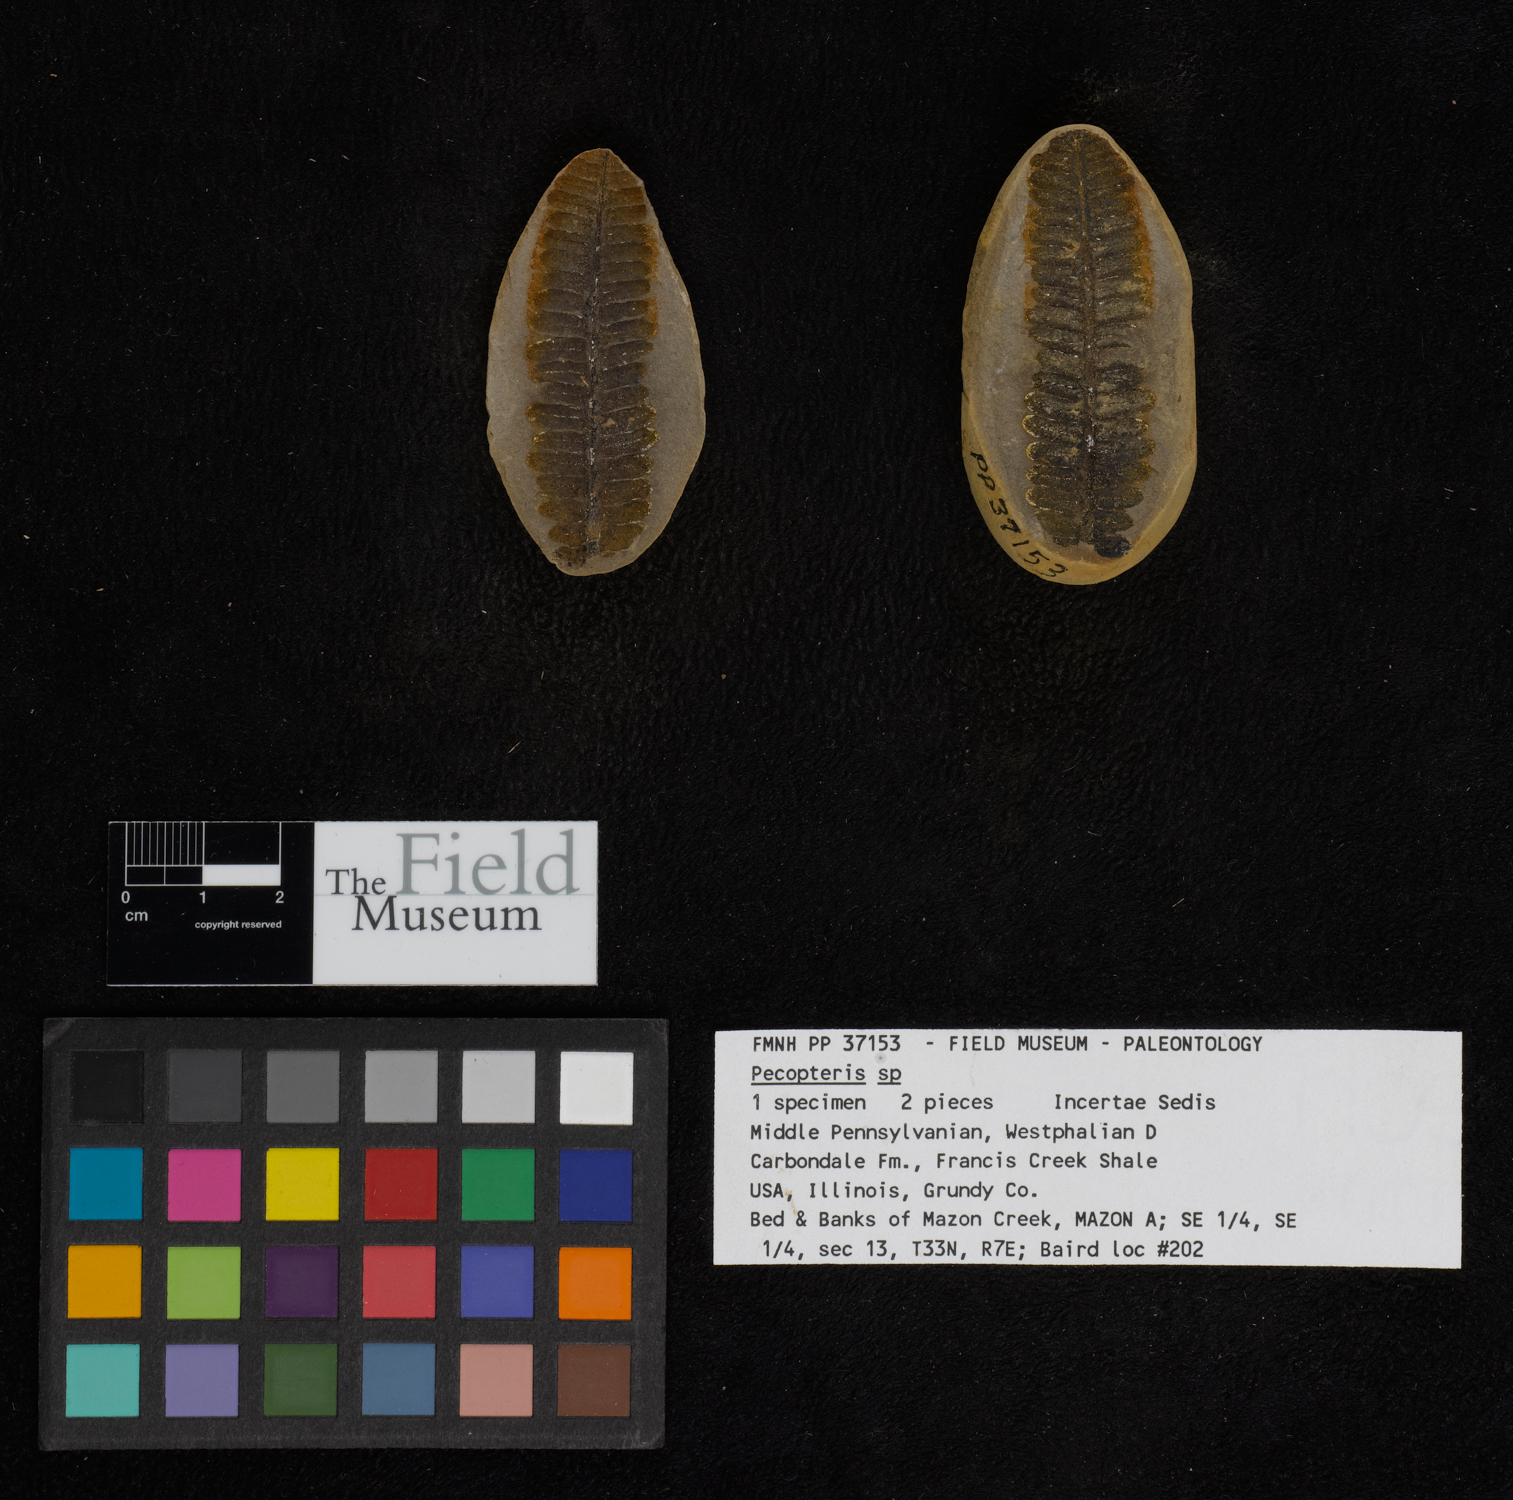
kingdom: Plantae
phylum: Tracheophyta
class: Polypodiopsida
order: Marattiales
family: Asterothecaceae
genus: Pecopteris
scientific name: Pecopteris
